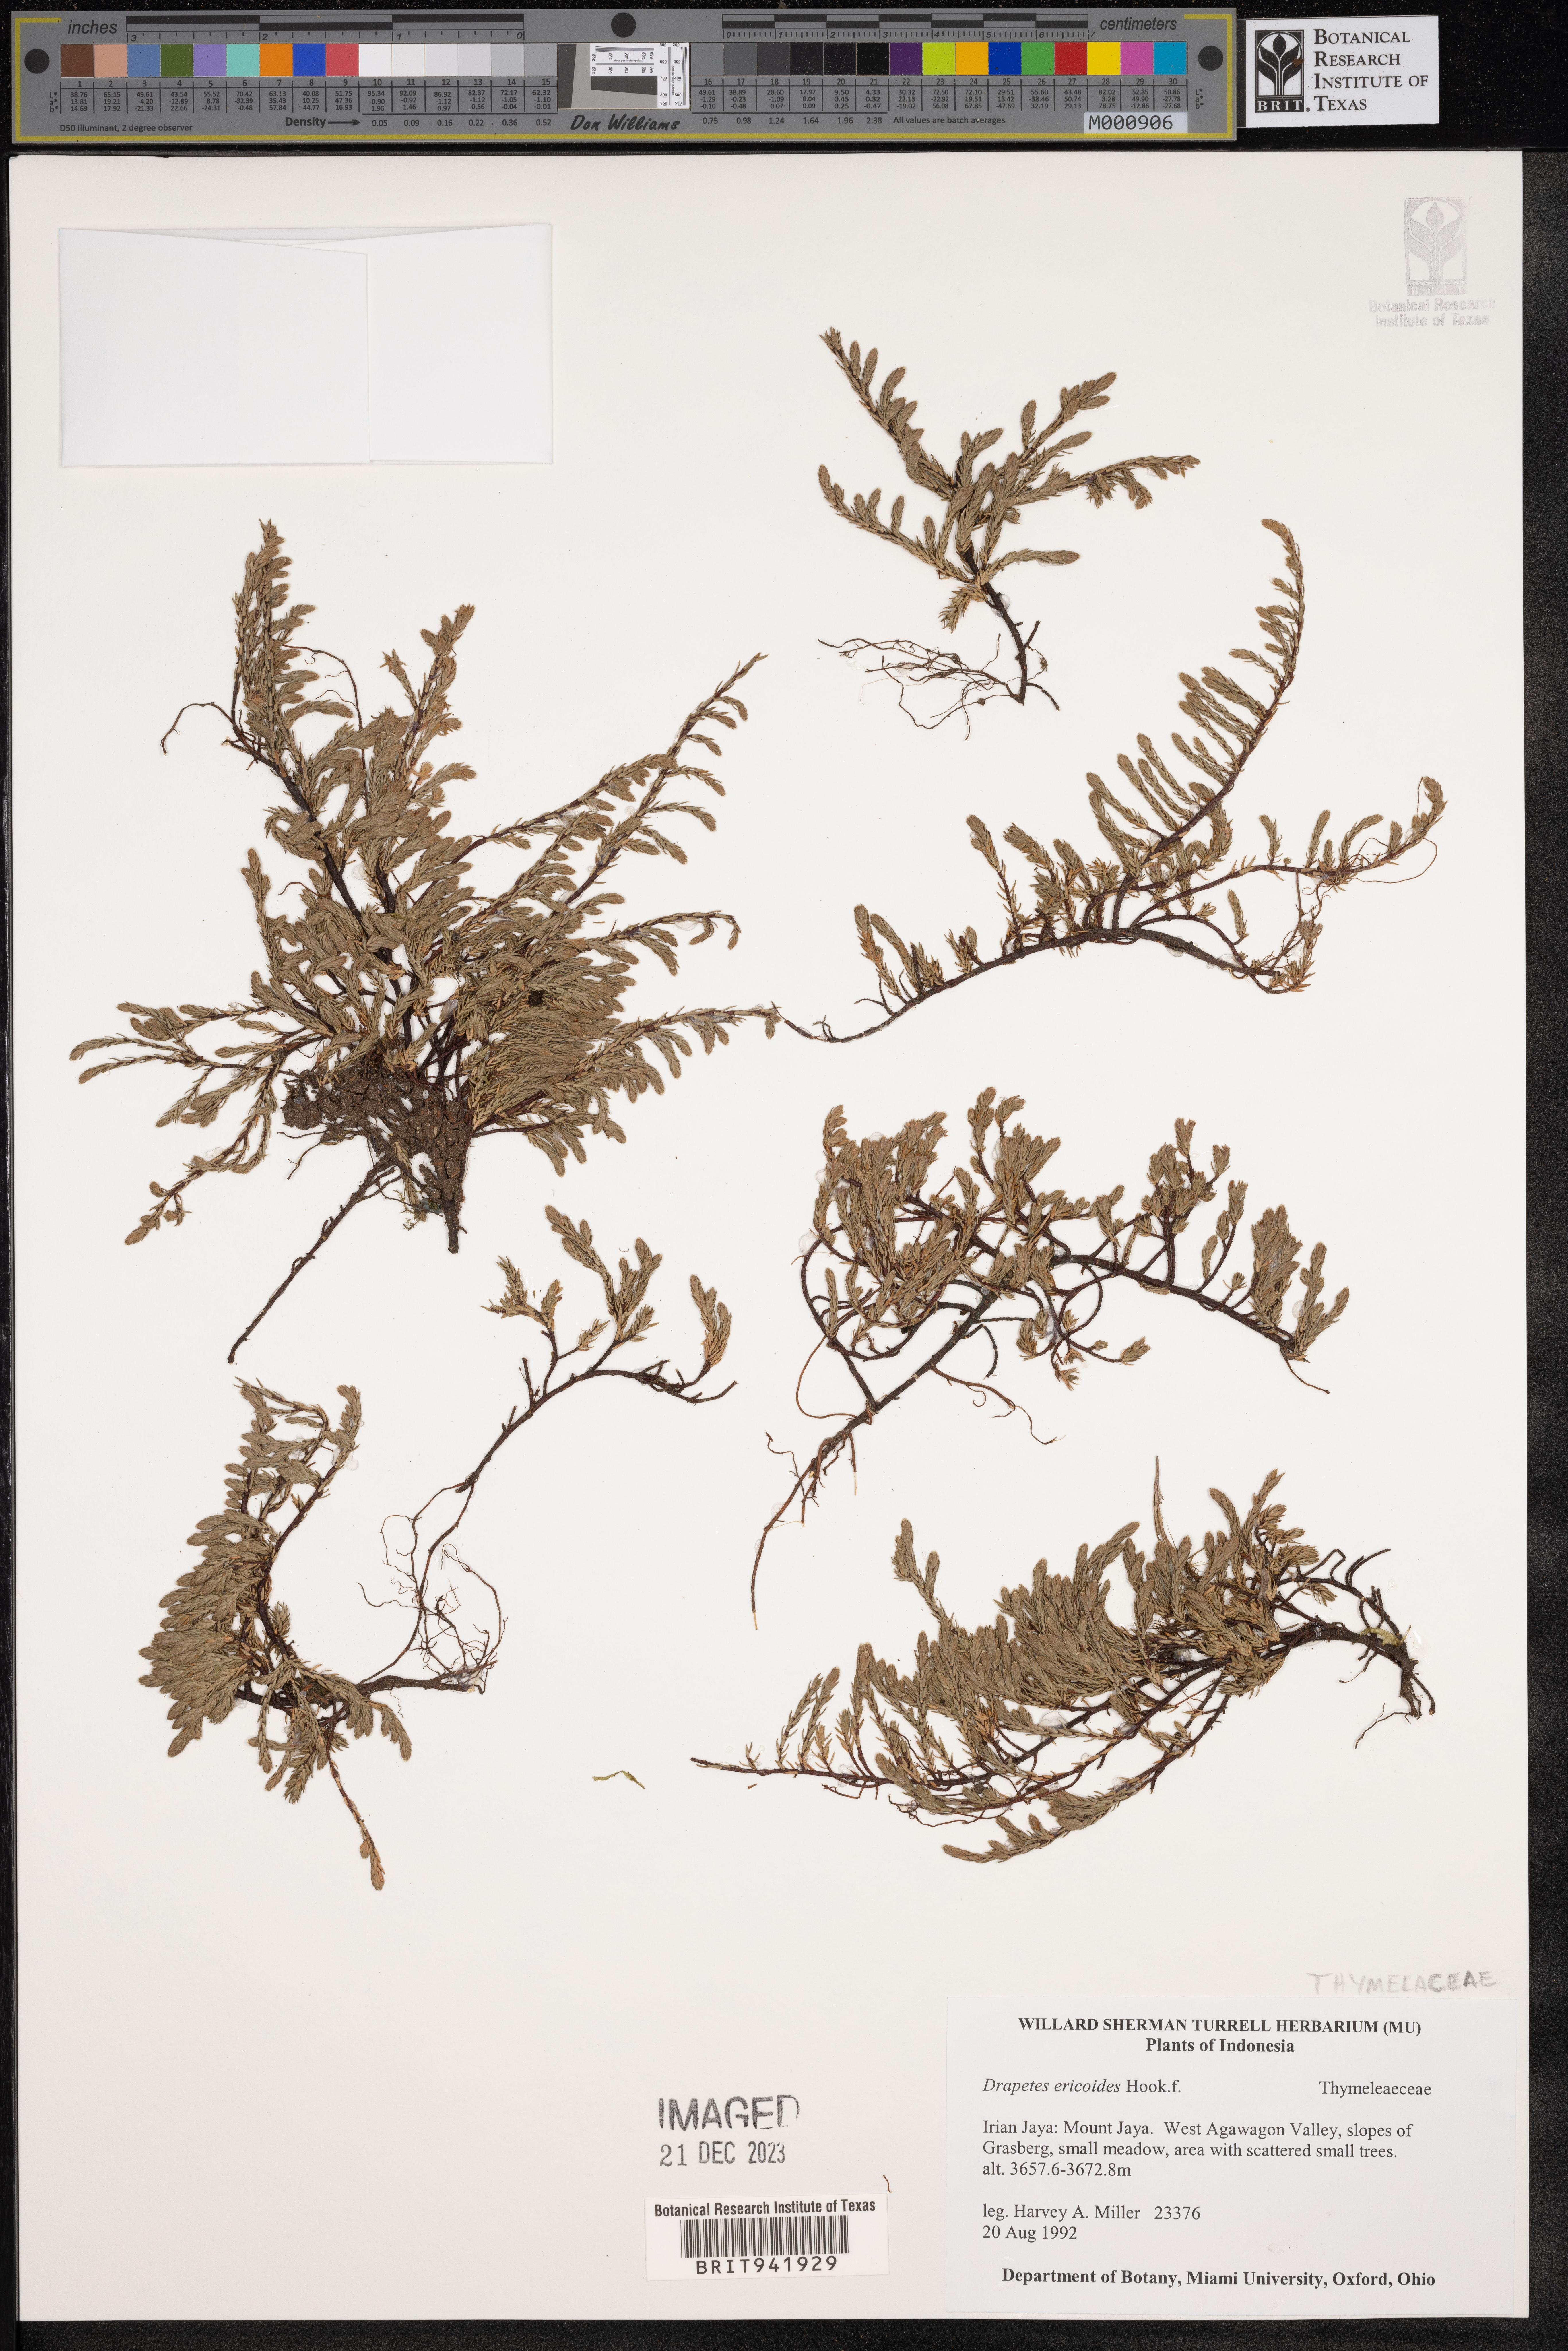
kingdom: Plantae
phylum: Tracheophyta
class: Magnoliopsida
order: Malvales
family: Thymelaeaceae
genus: Drapetes
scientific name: Drapetes
